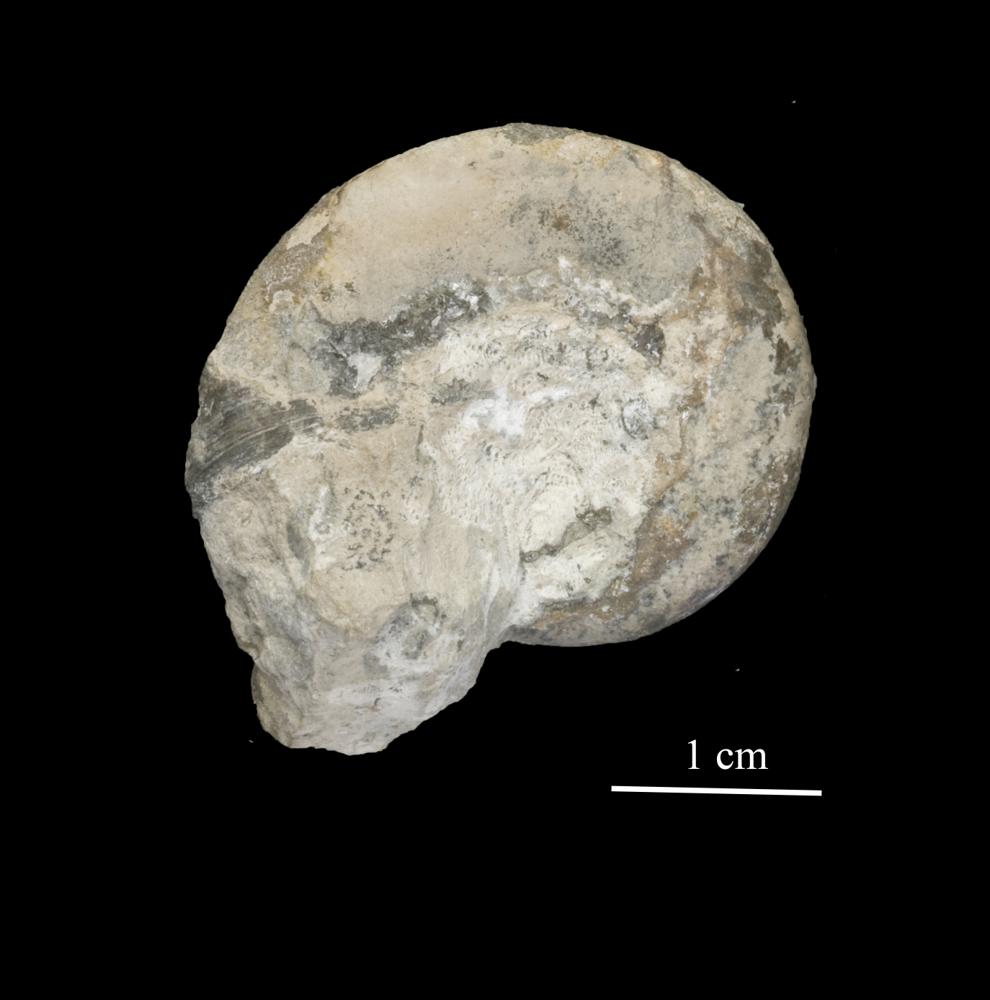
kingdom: Animalia
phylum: Mollusca
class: Gastropoda
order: Pleurotomariida
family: Planitrochidae
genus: Trochomphalus
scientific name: Trochomphalus Pycnomphalus borkholmiensis
